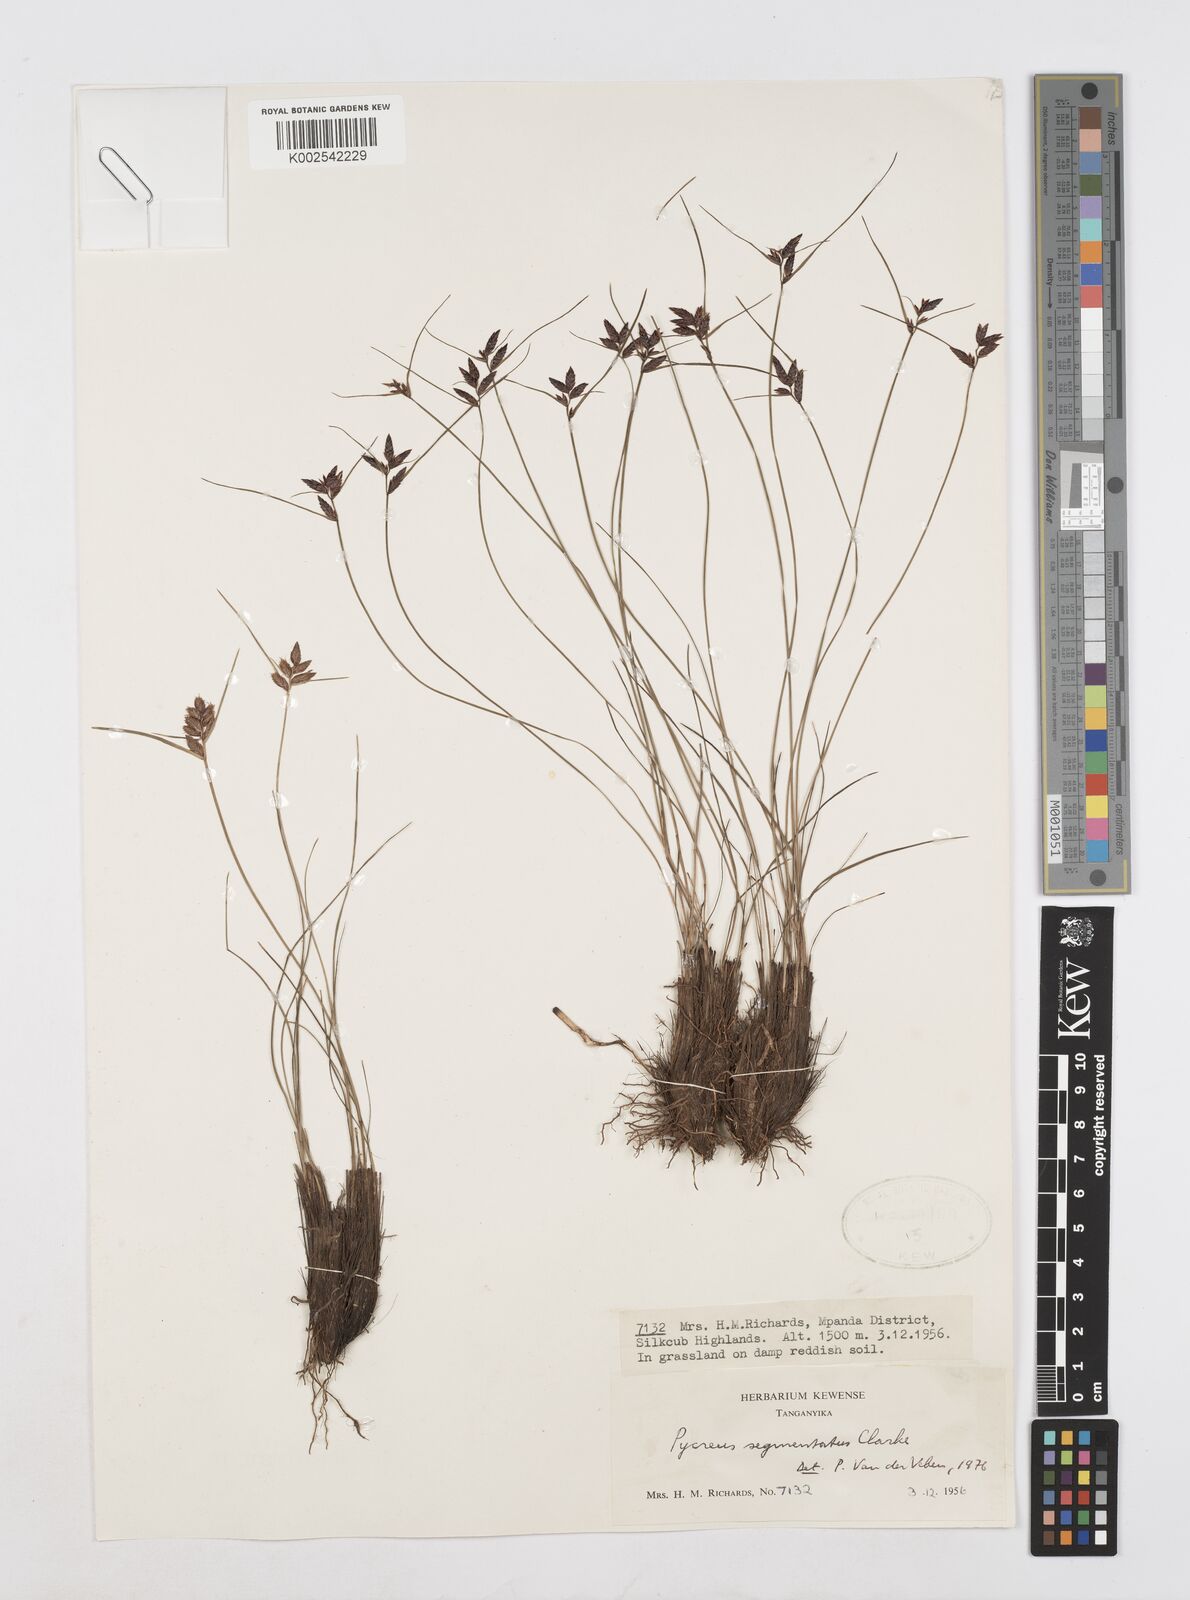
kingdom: Plantae
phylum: Tracheophyta
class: Liliopsida
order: Poales
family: Cyperaceae
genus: Cyperus
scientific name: Cyperus
